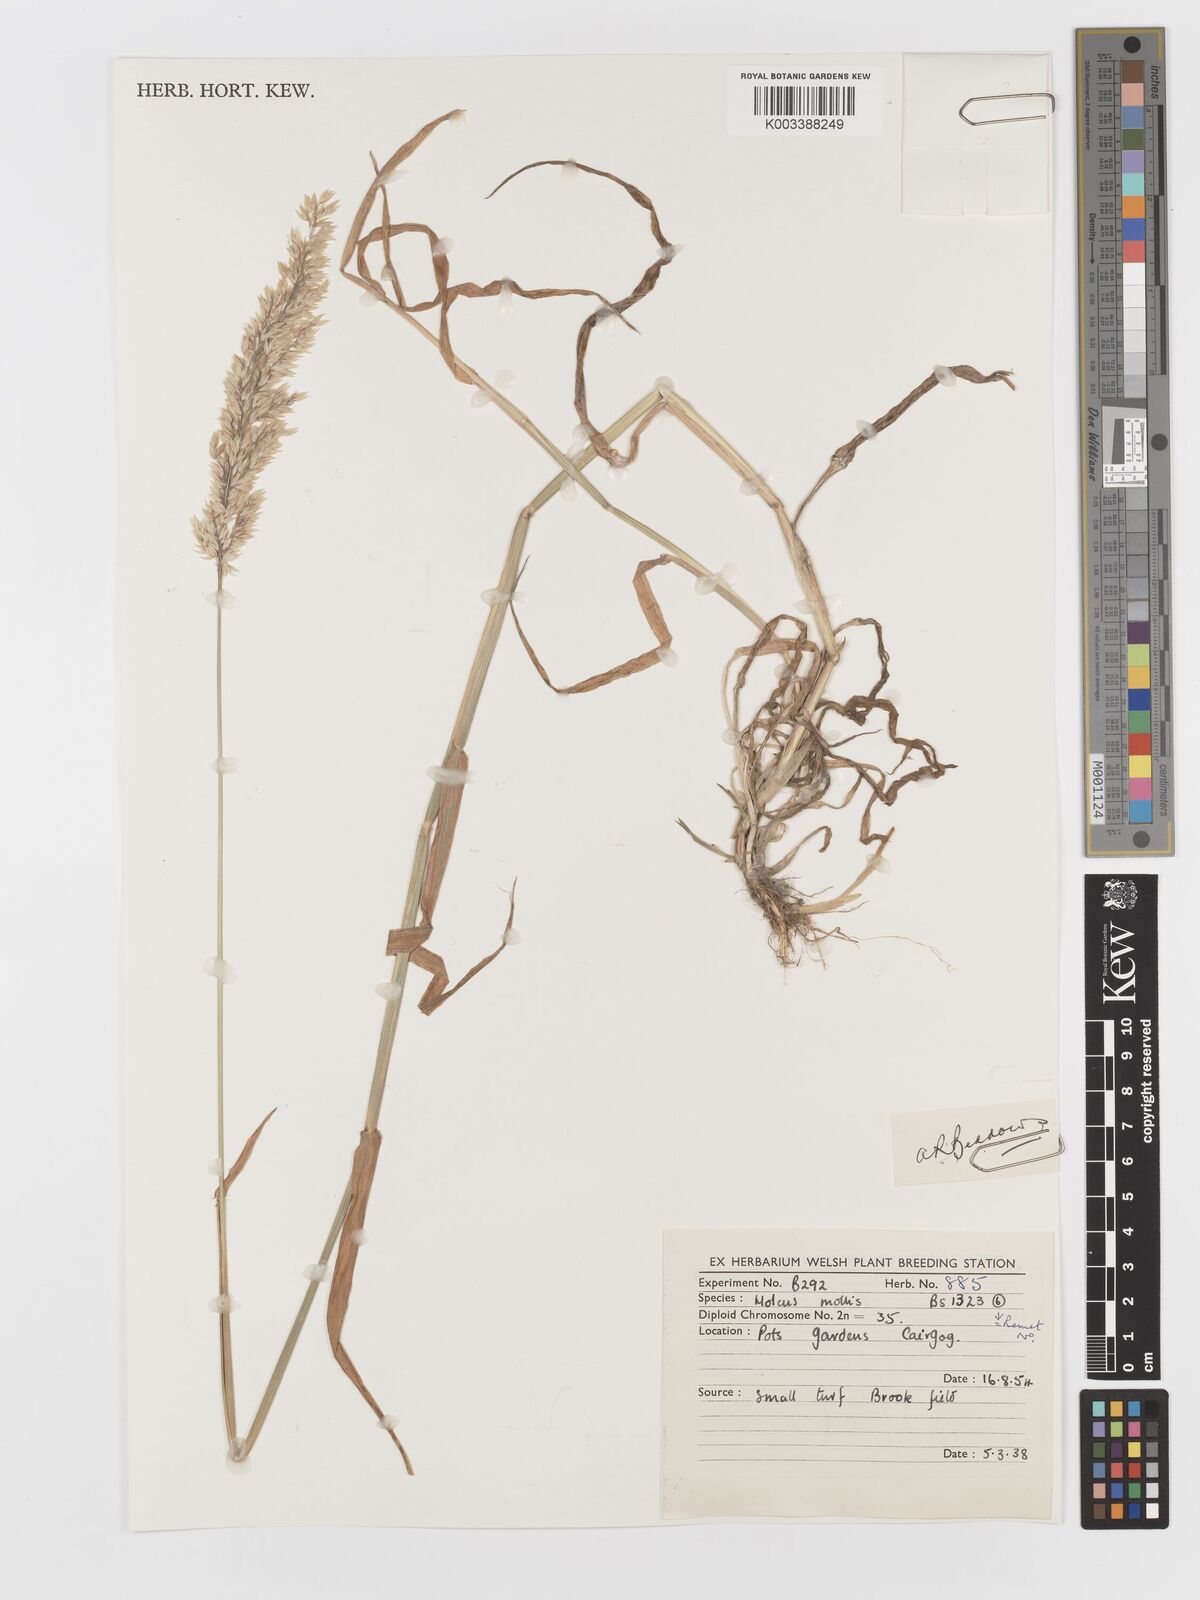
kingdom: Plantae
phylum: Tracheophyta
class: Liliopsida
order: Poales
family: Poaceae
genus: Holcus
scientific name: Holcus mollis
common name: Creeping velvetgrass
